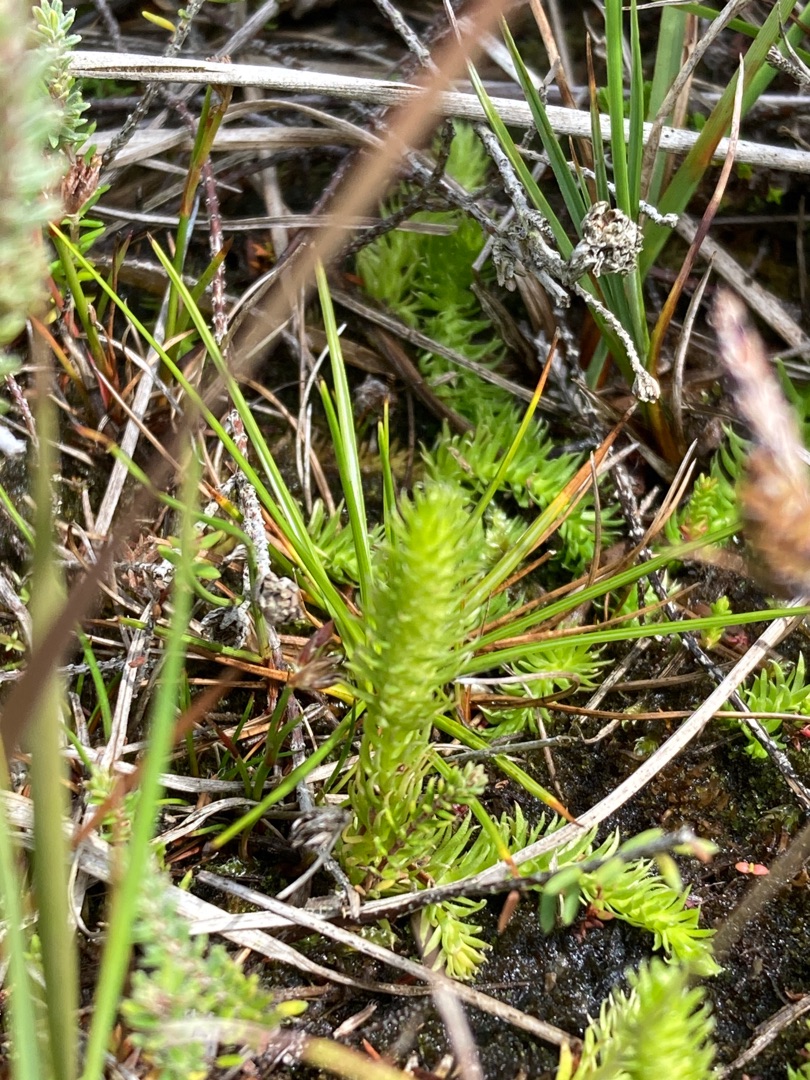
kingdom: Plantae
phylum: Tracheophyta
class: Lycopodiopsida
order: Lycopodiales
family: Lycopodiaceae
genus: Lycopodiella
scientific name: Lycopodiella inundata
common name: Liden ulvefod
